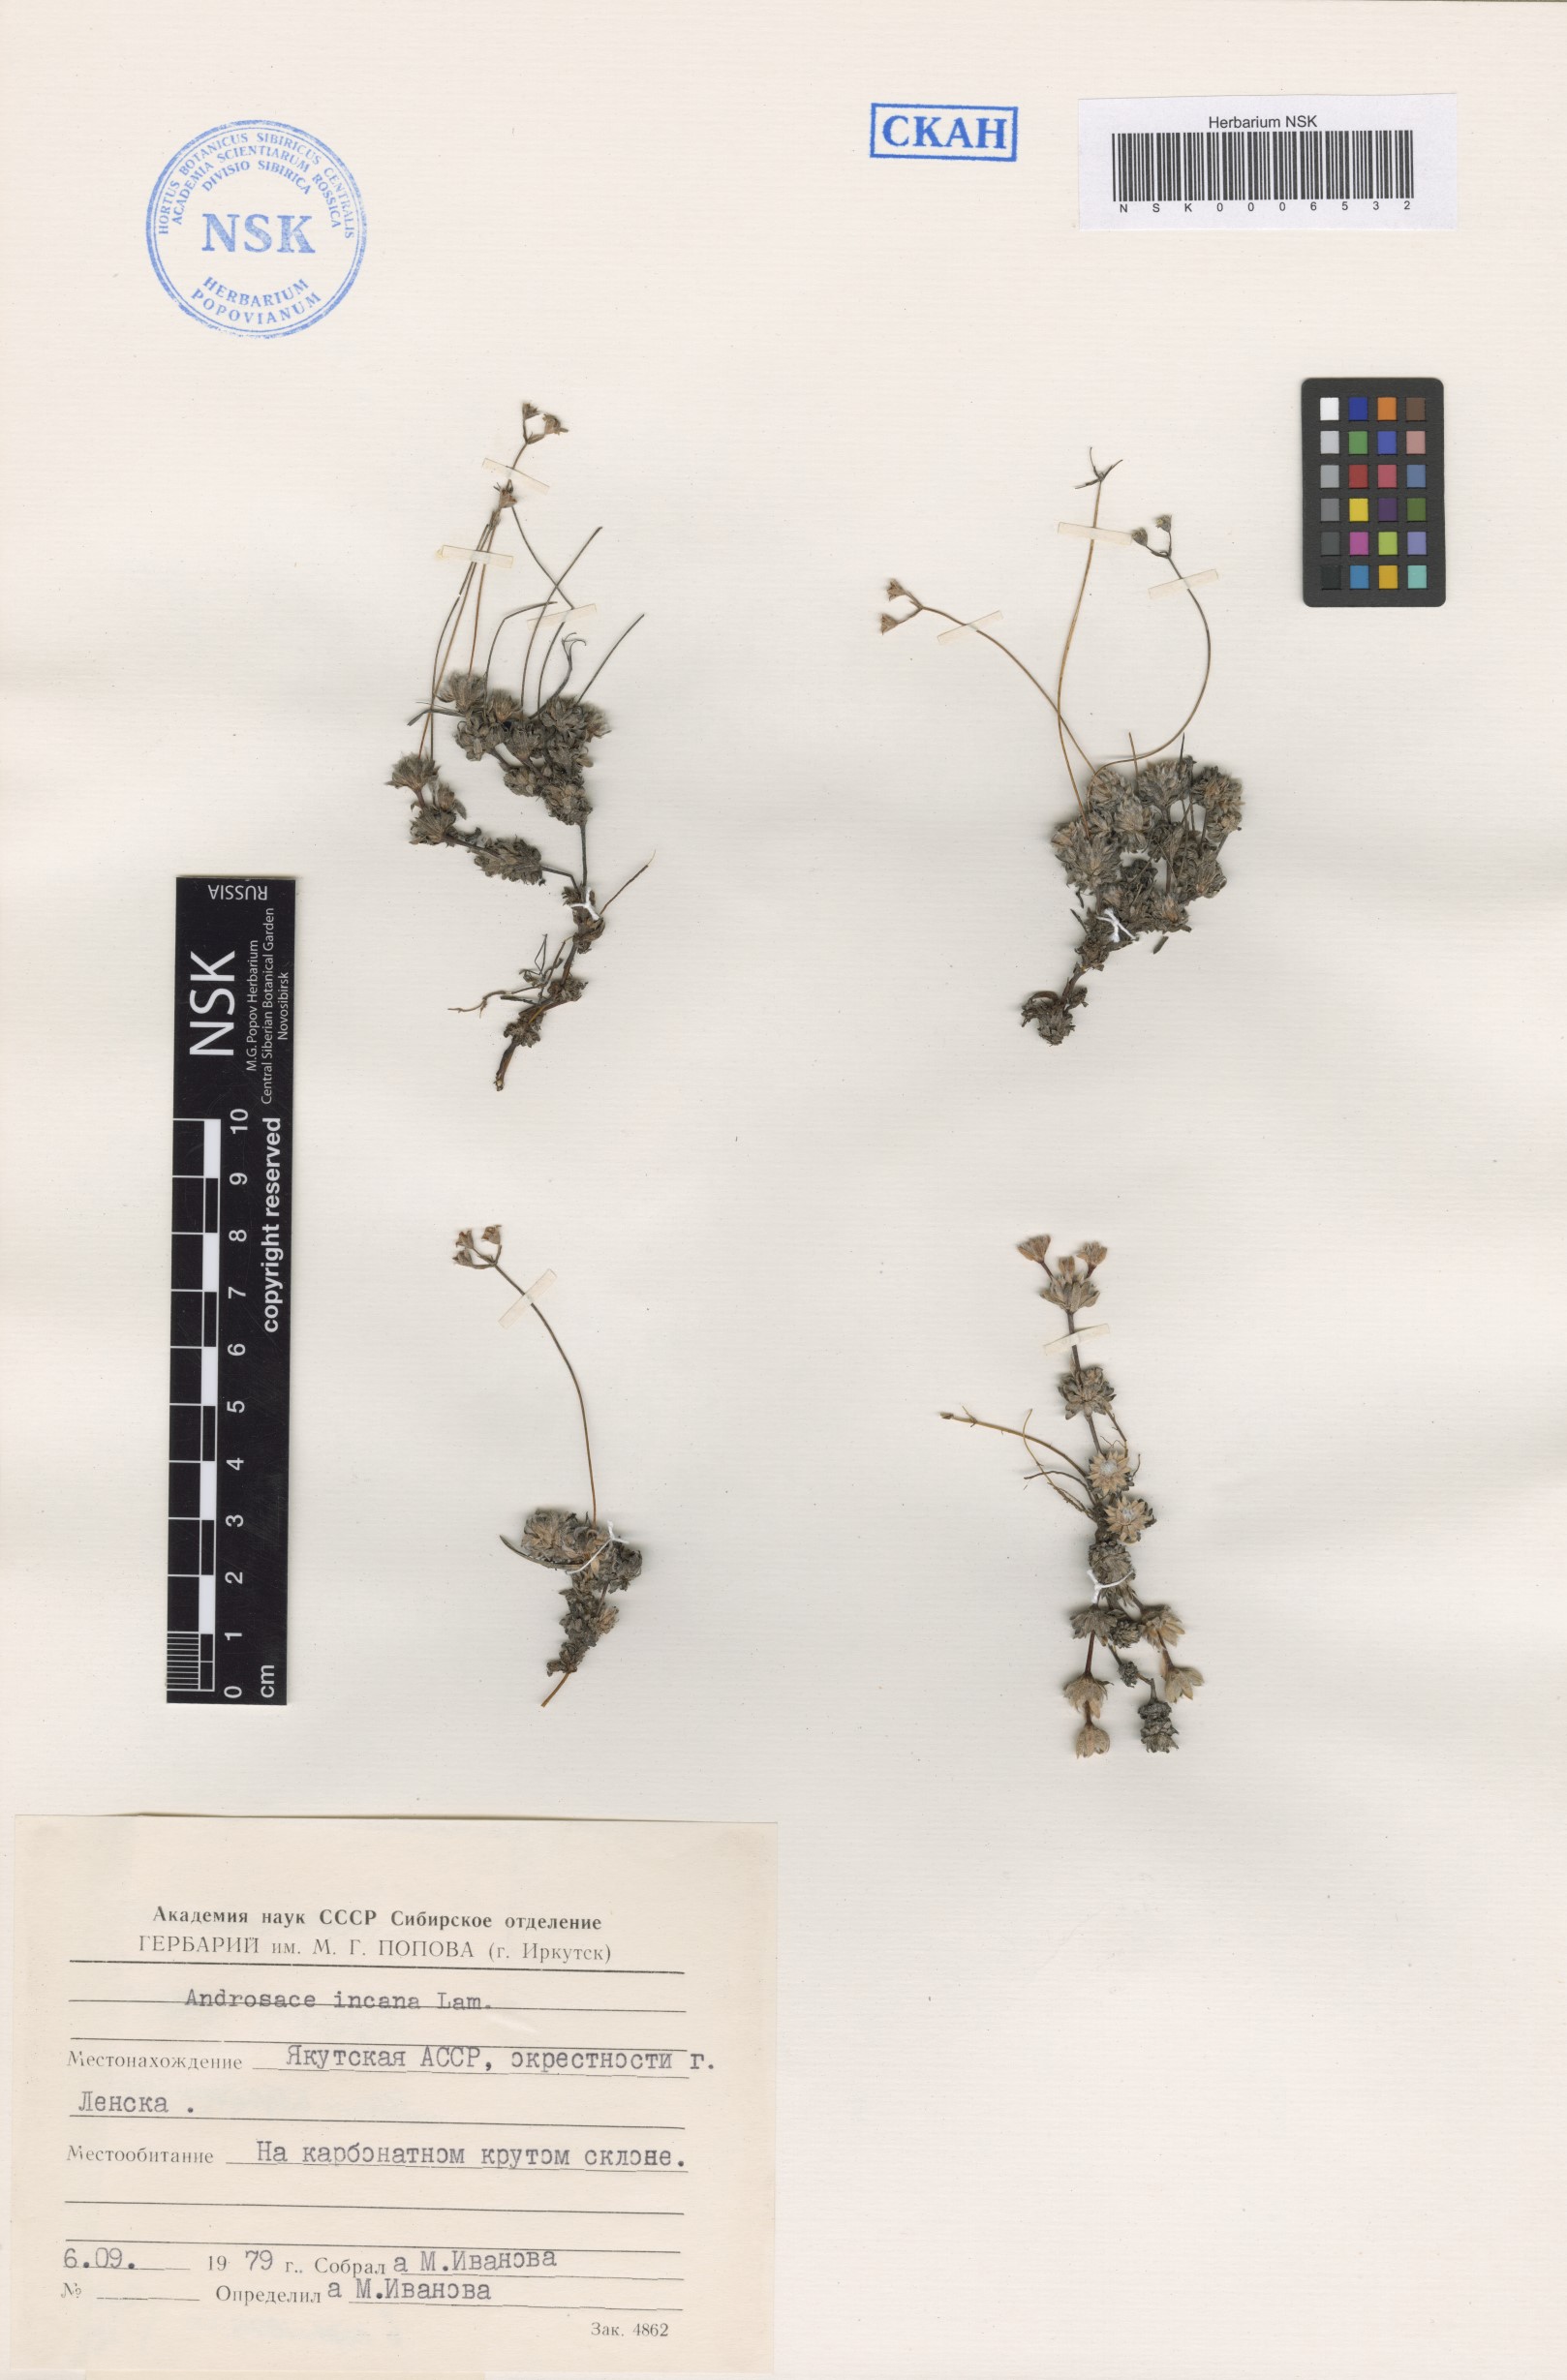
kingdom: Plantae
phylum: Tracheophyta
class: Magnoliopsida
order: Ericales
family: Primulaceae
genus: Androsace
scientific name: Androsace incana
